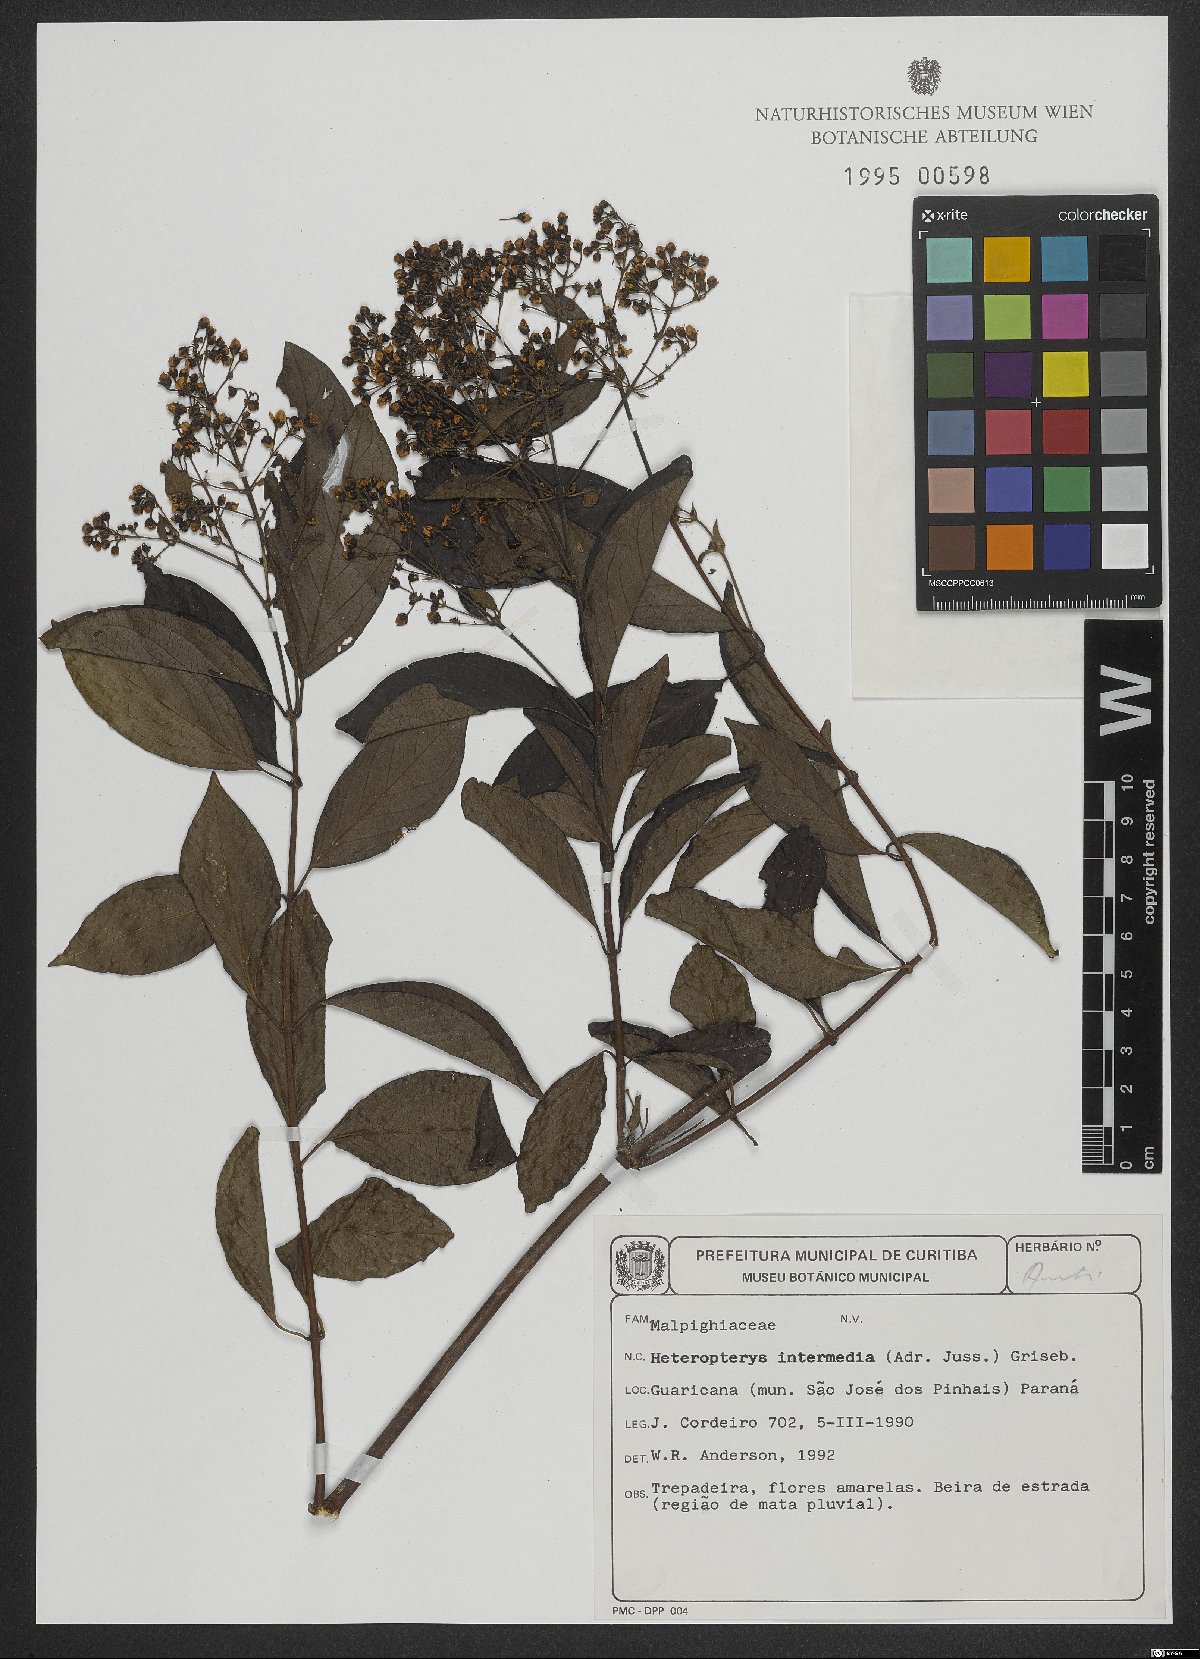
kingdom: Plantae
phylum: Tracheophyta
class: Magnoliopsida
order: Malpighiales
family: Malpighiaceae
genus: Heteropterys
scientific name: Heteropterys intermedia
